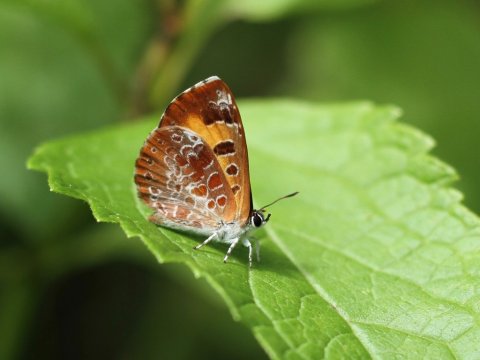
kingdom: Animalia
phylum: Arthropoda
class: Insecta
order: Lepidoptera
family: Lycaenidae
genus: Feniseca
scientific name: Feniseca tarquinius
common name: Harvester
